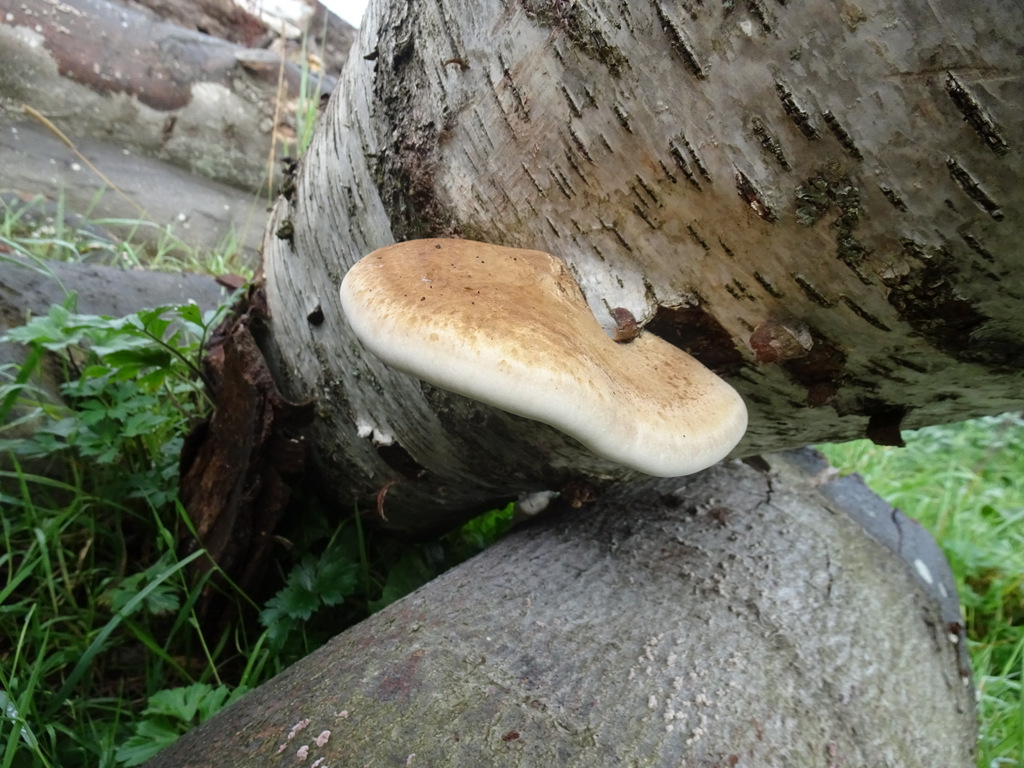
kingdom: Fungi
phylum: Basidiomycota
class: Agaricomycetes
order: Polyporales
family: Fomitopsidaceae
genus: Fomitopsis
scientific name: Fomitopsis betulina
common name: birkeporesvamp
